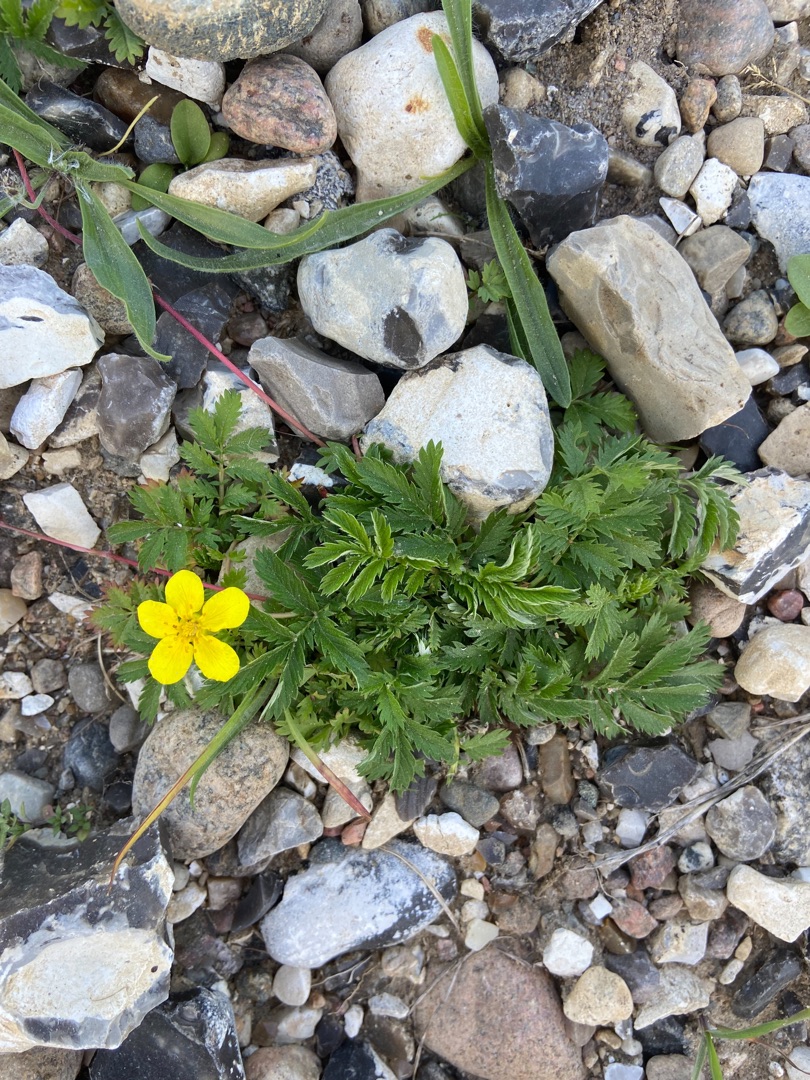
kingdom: Plantae
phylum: Tracheophyta
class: Magnoliopsida
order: Rosales
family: Rosaceae
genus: Argentina
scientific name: Argentina anserina
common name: Gåsepotentil
